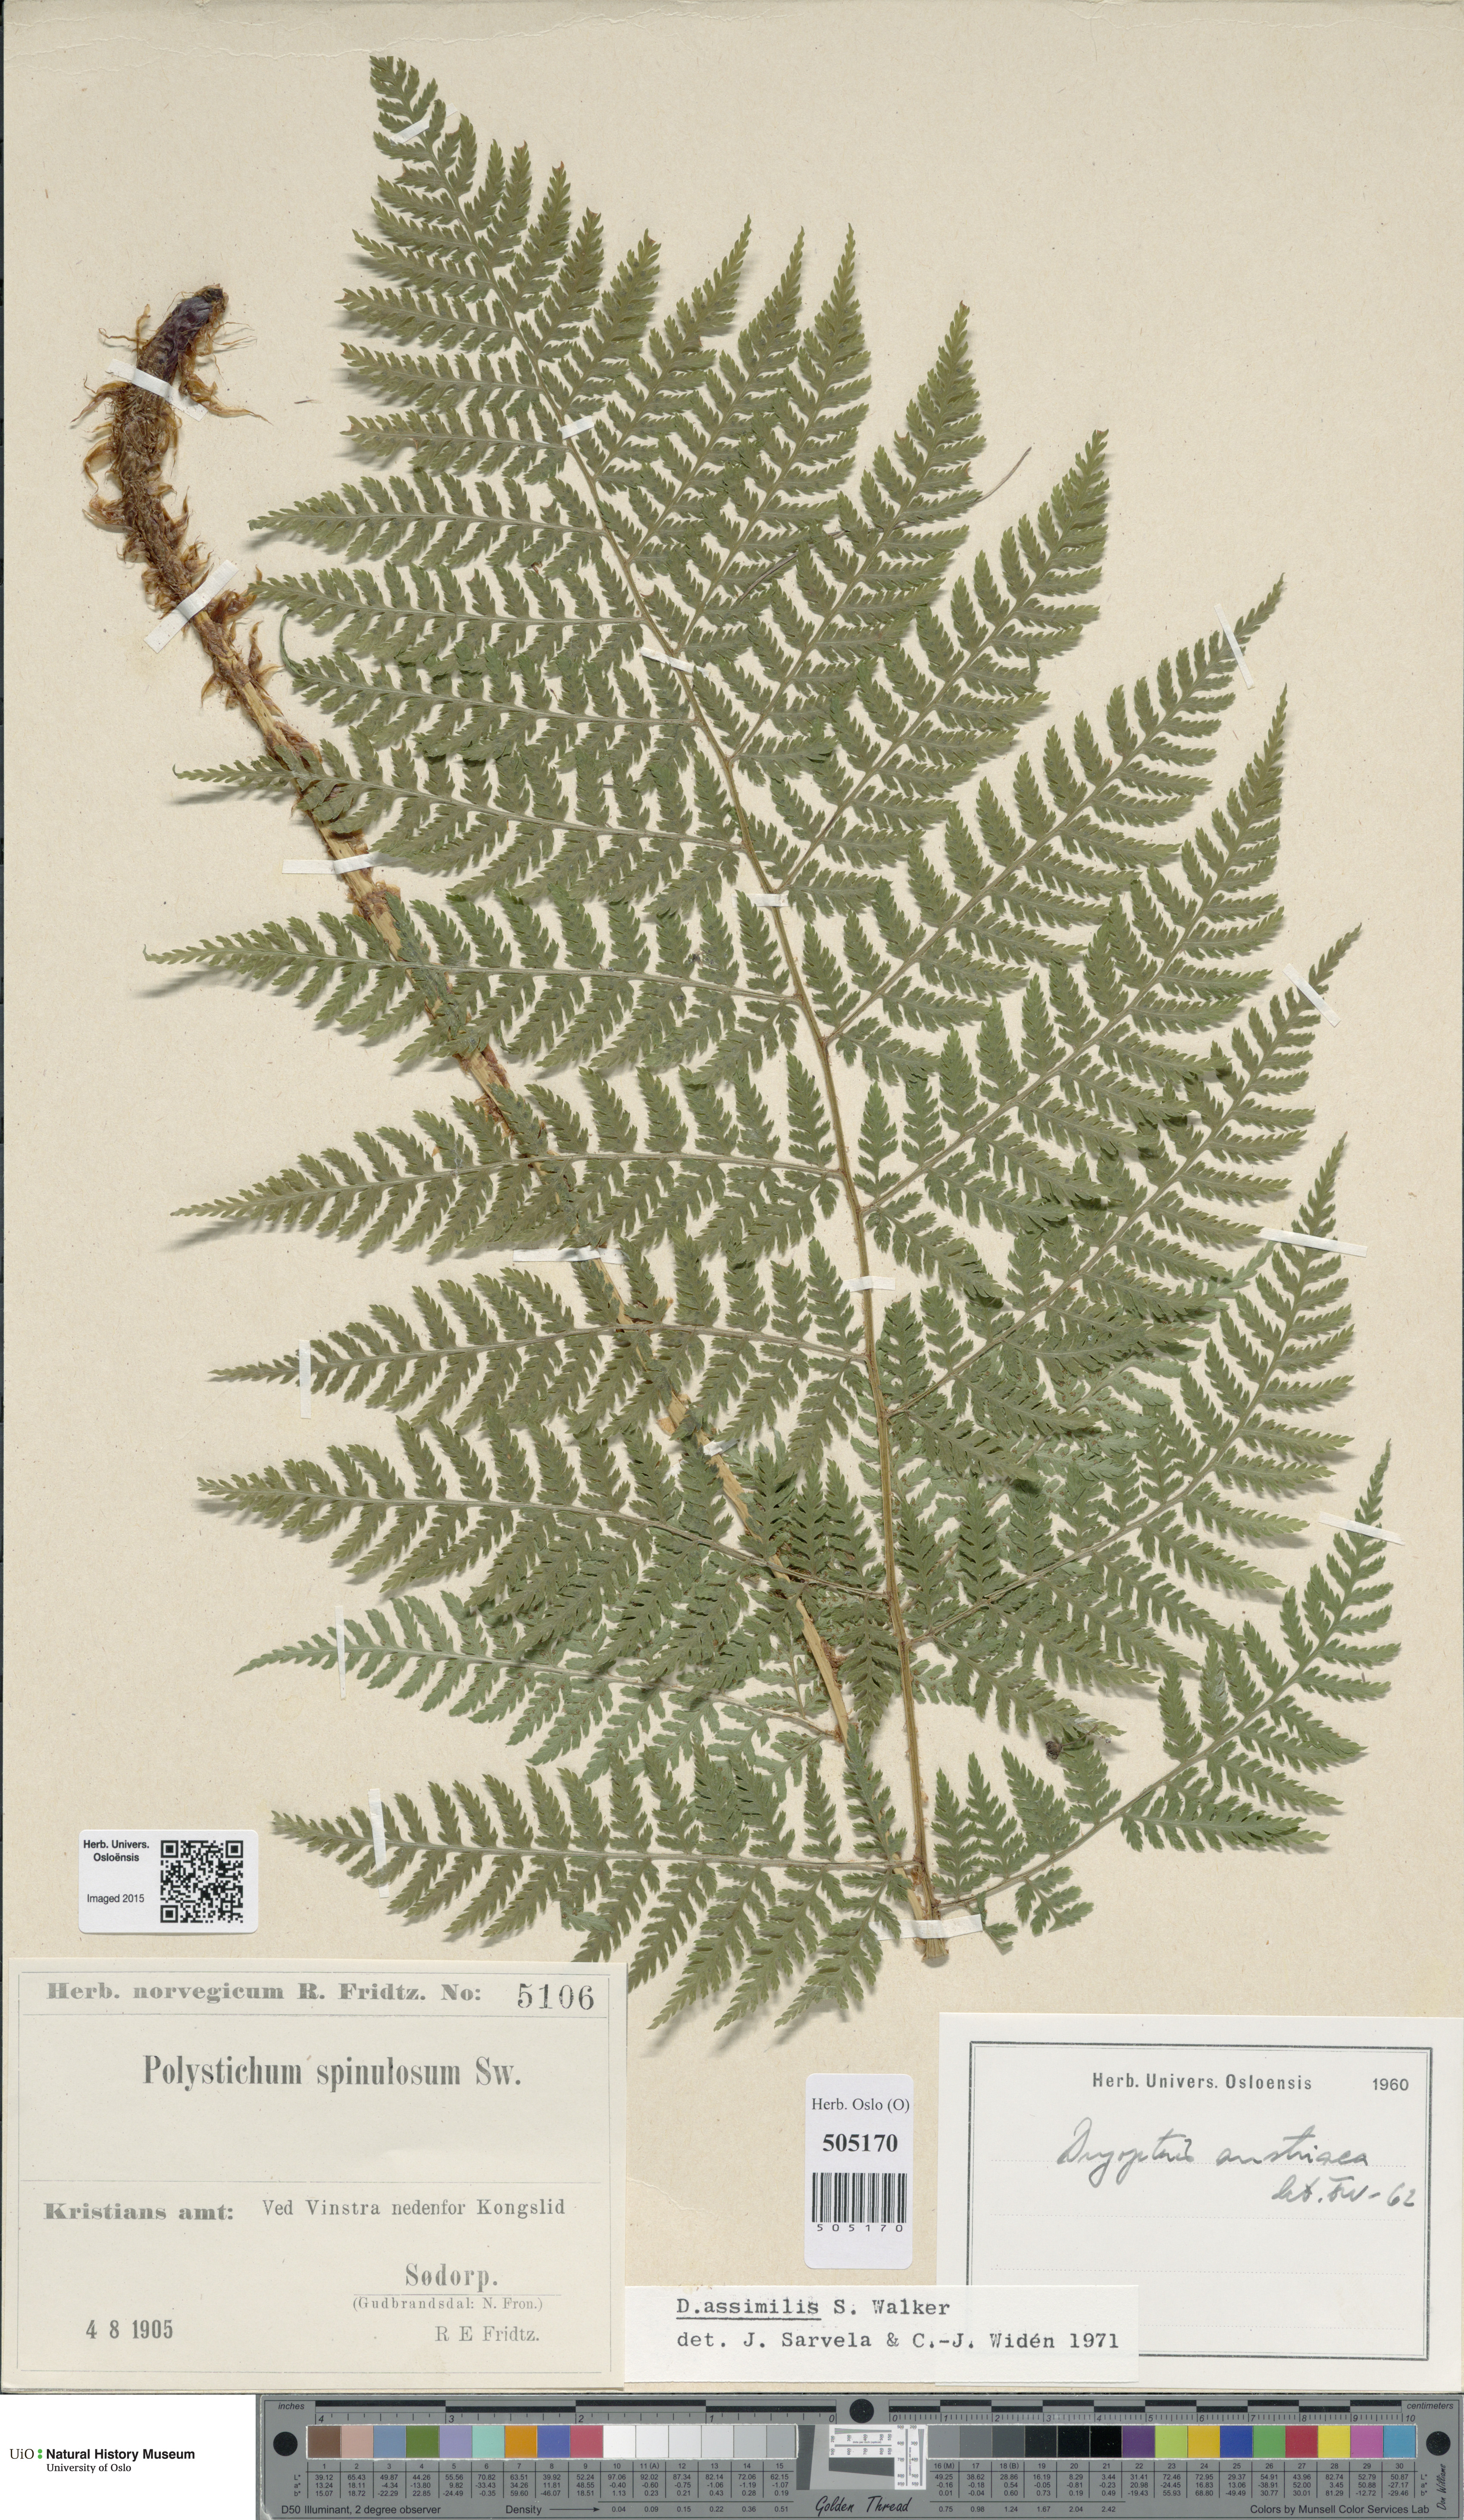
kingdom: Plantae
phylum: Tracheophyta
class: Polypodiopsida
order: Polypodiales
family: Dryopteridaceae
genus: Dryopteris
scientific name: Dryopteris expansa
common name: Northern buckler fern
